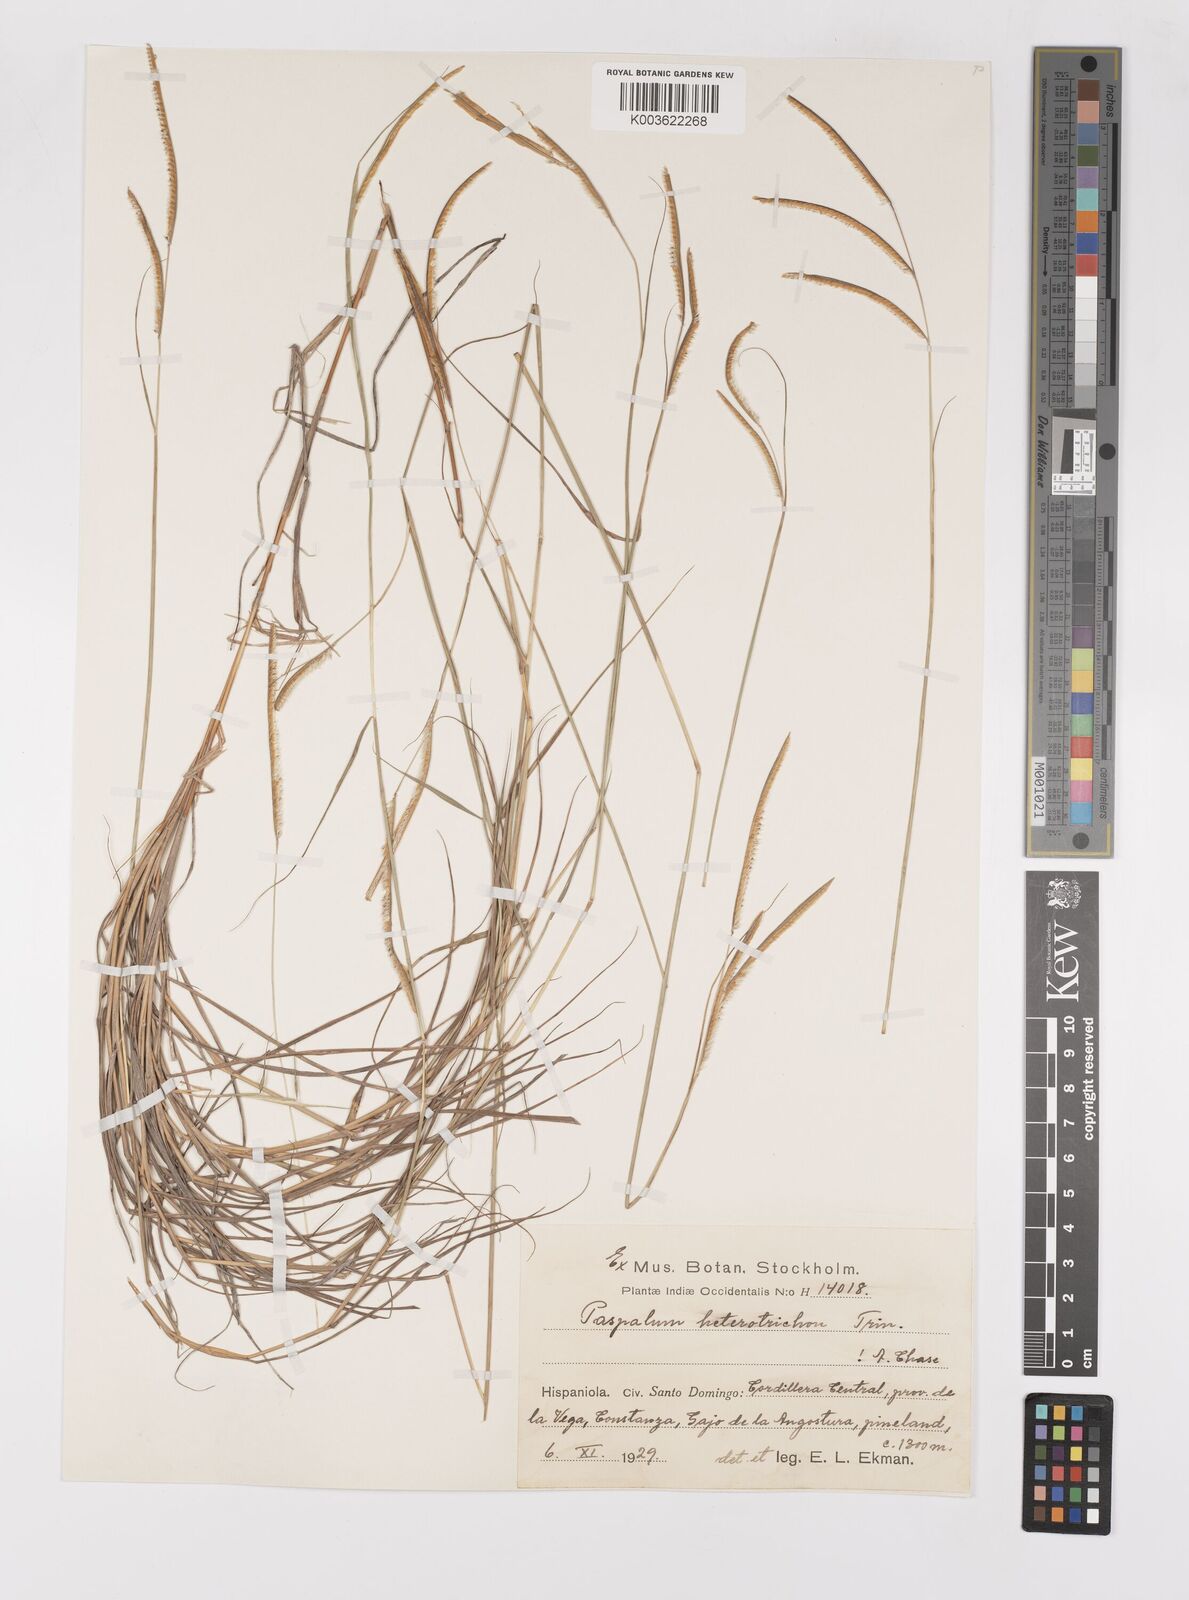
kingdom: Plantae
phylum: Tracheophyta
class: Liliopsida
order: Poales
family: Poaceae
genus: Paspalum
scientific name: Paspalum heterotrichon
